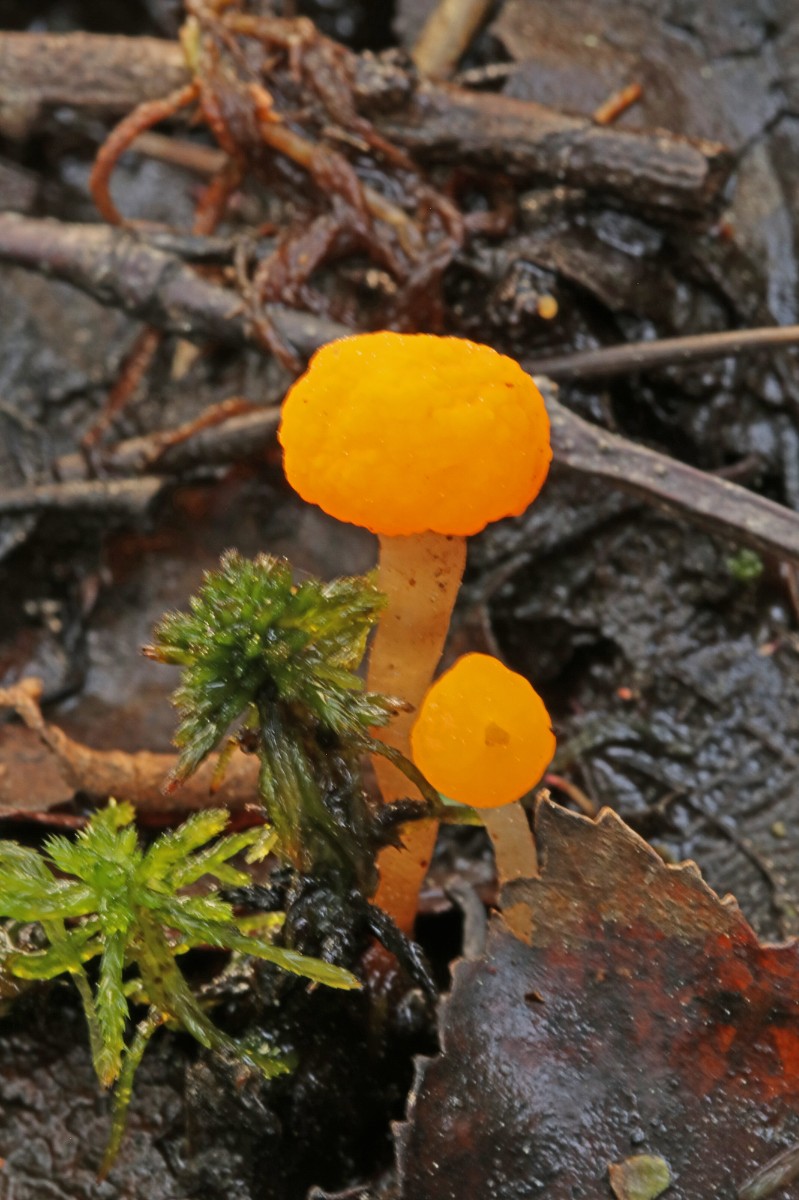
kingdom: Fungi
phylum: Ascomycota
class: Leotiomycetes
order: Helotiales
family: Cenangiaceae
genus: Mitrula
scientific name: Mitrula paludosa
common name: gul nøkketunge
